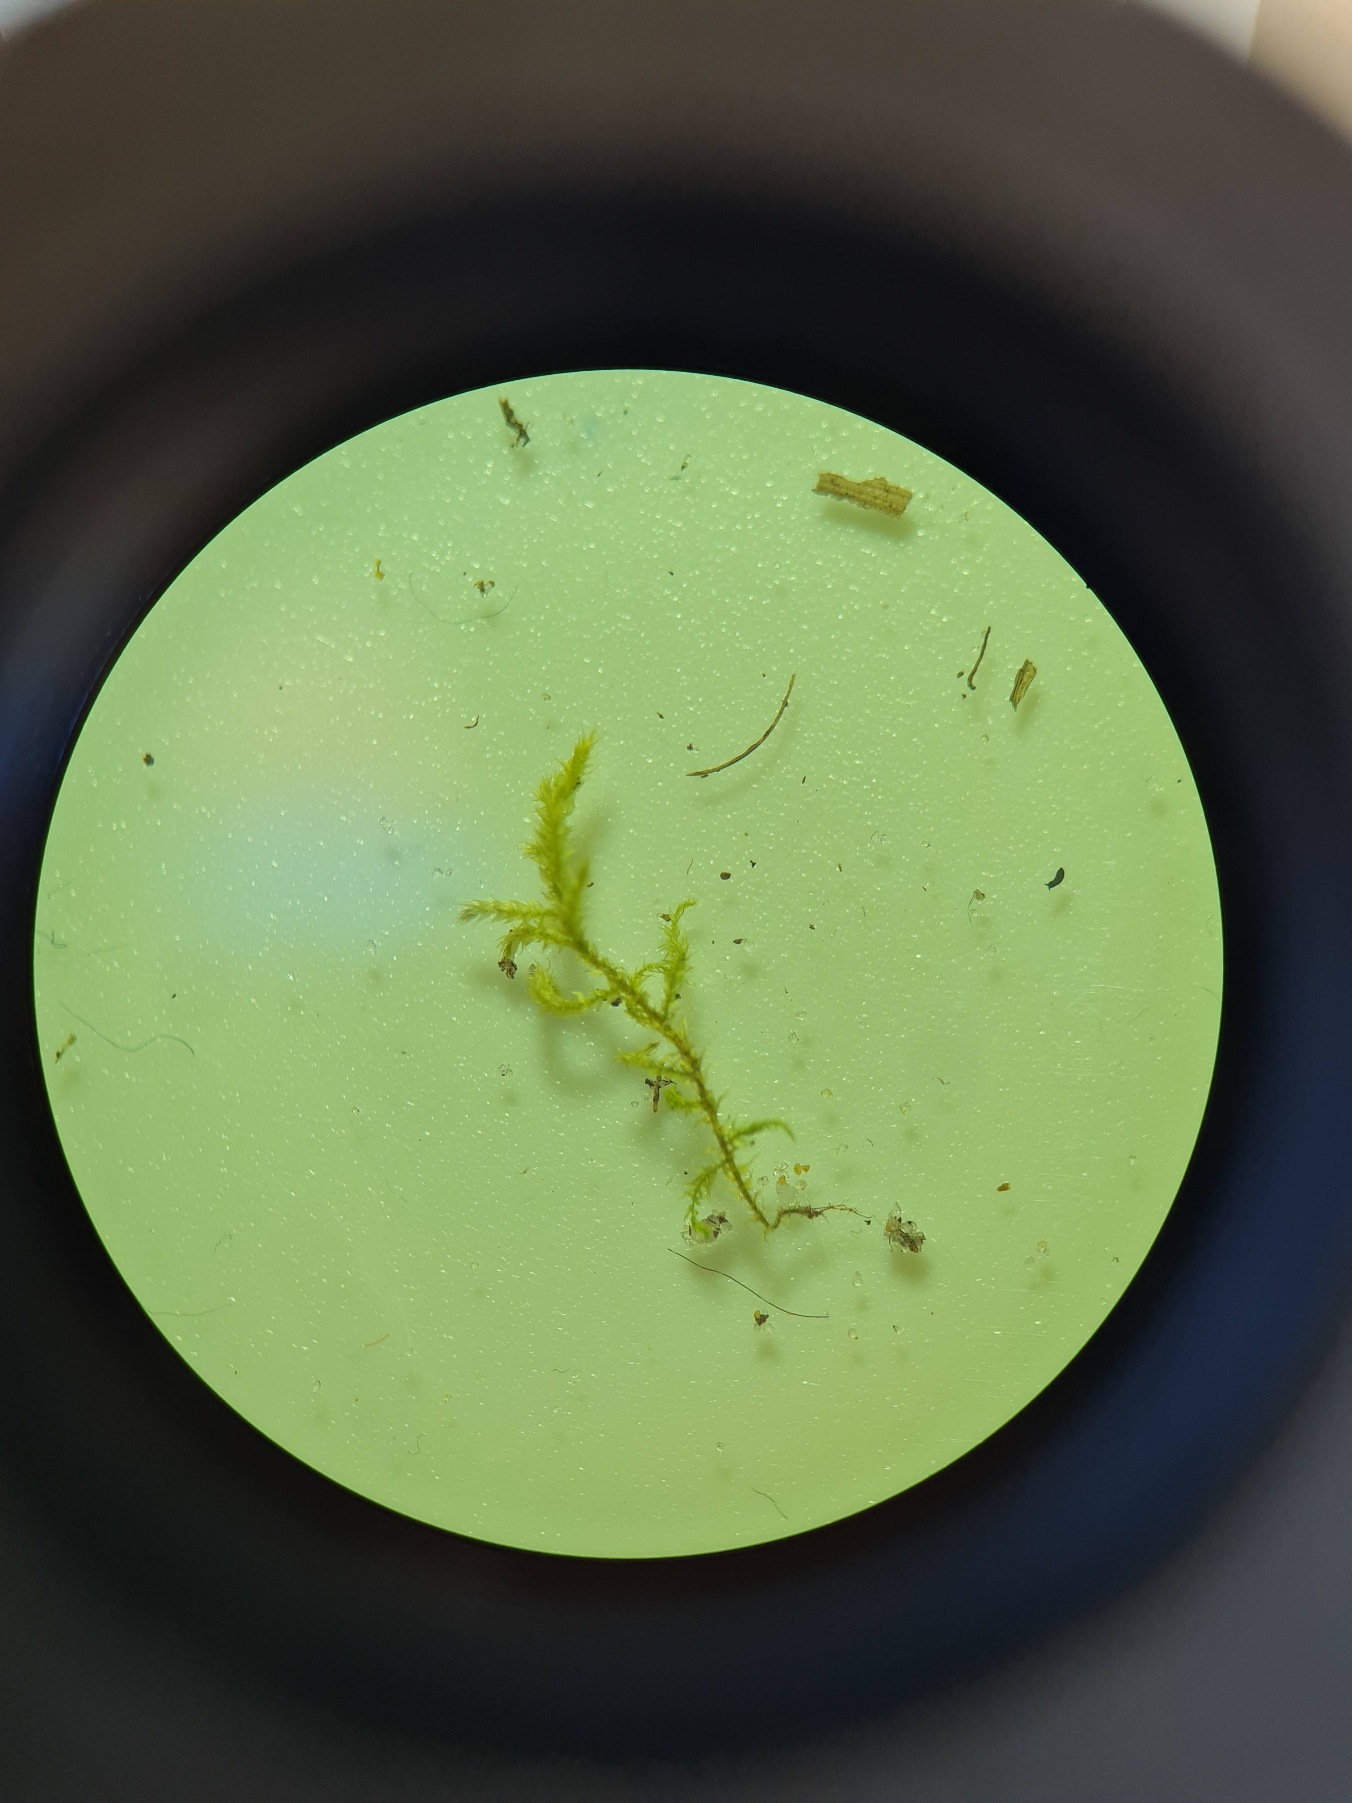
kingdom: Plantae
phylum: Bryophyta
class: Bryopsida
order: Hypnales
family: Brachytheciaceae
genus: Kindbergia
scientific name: Kindbergia praelonga
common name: Forskelligbladet vortetand
